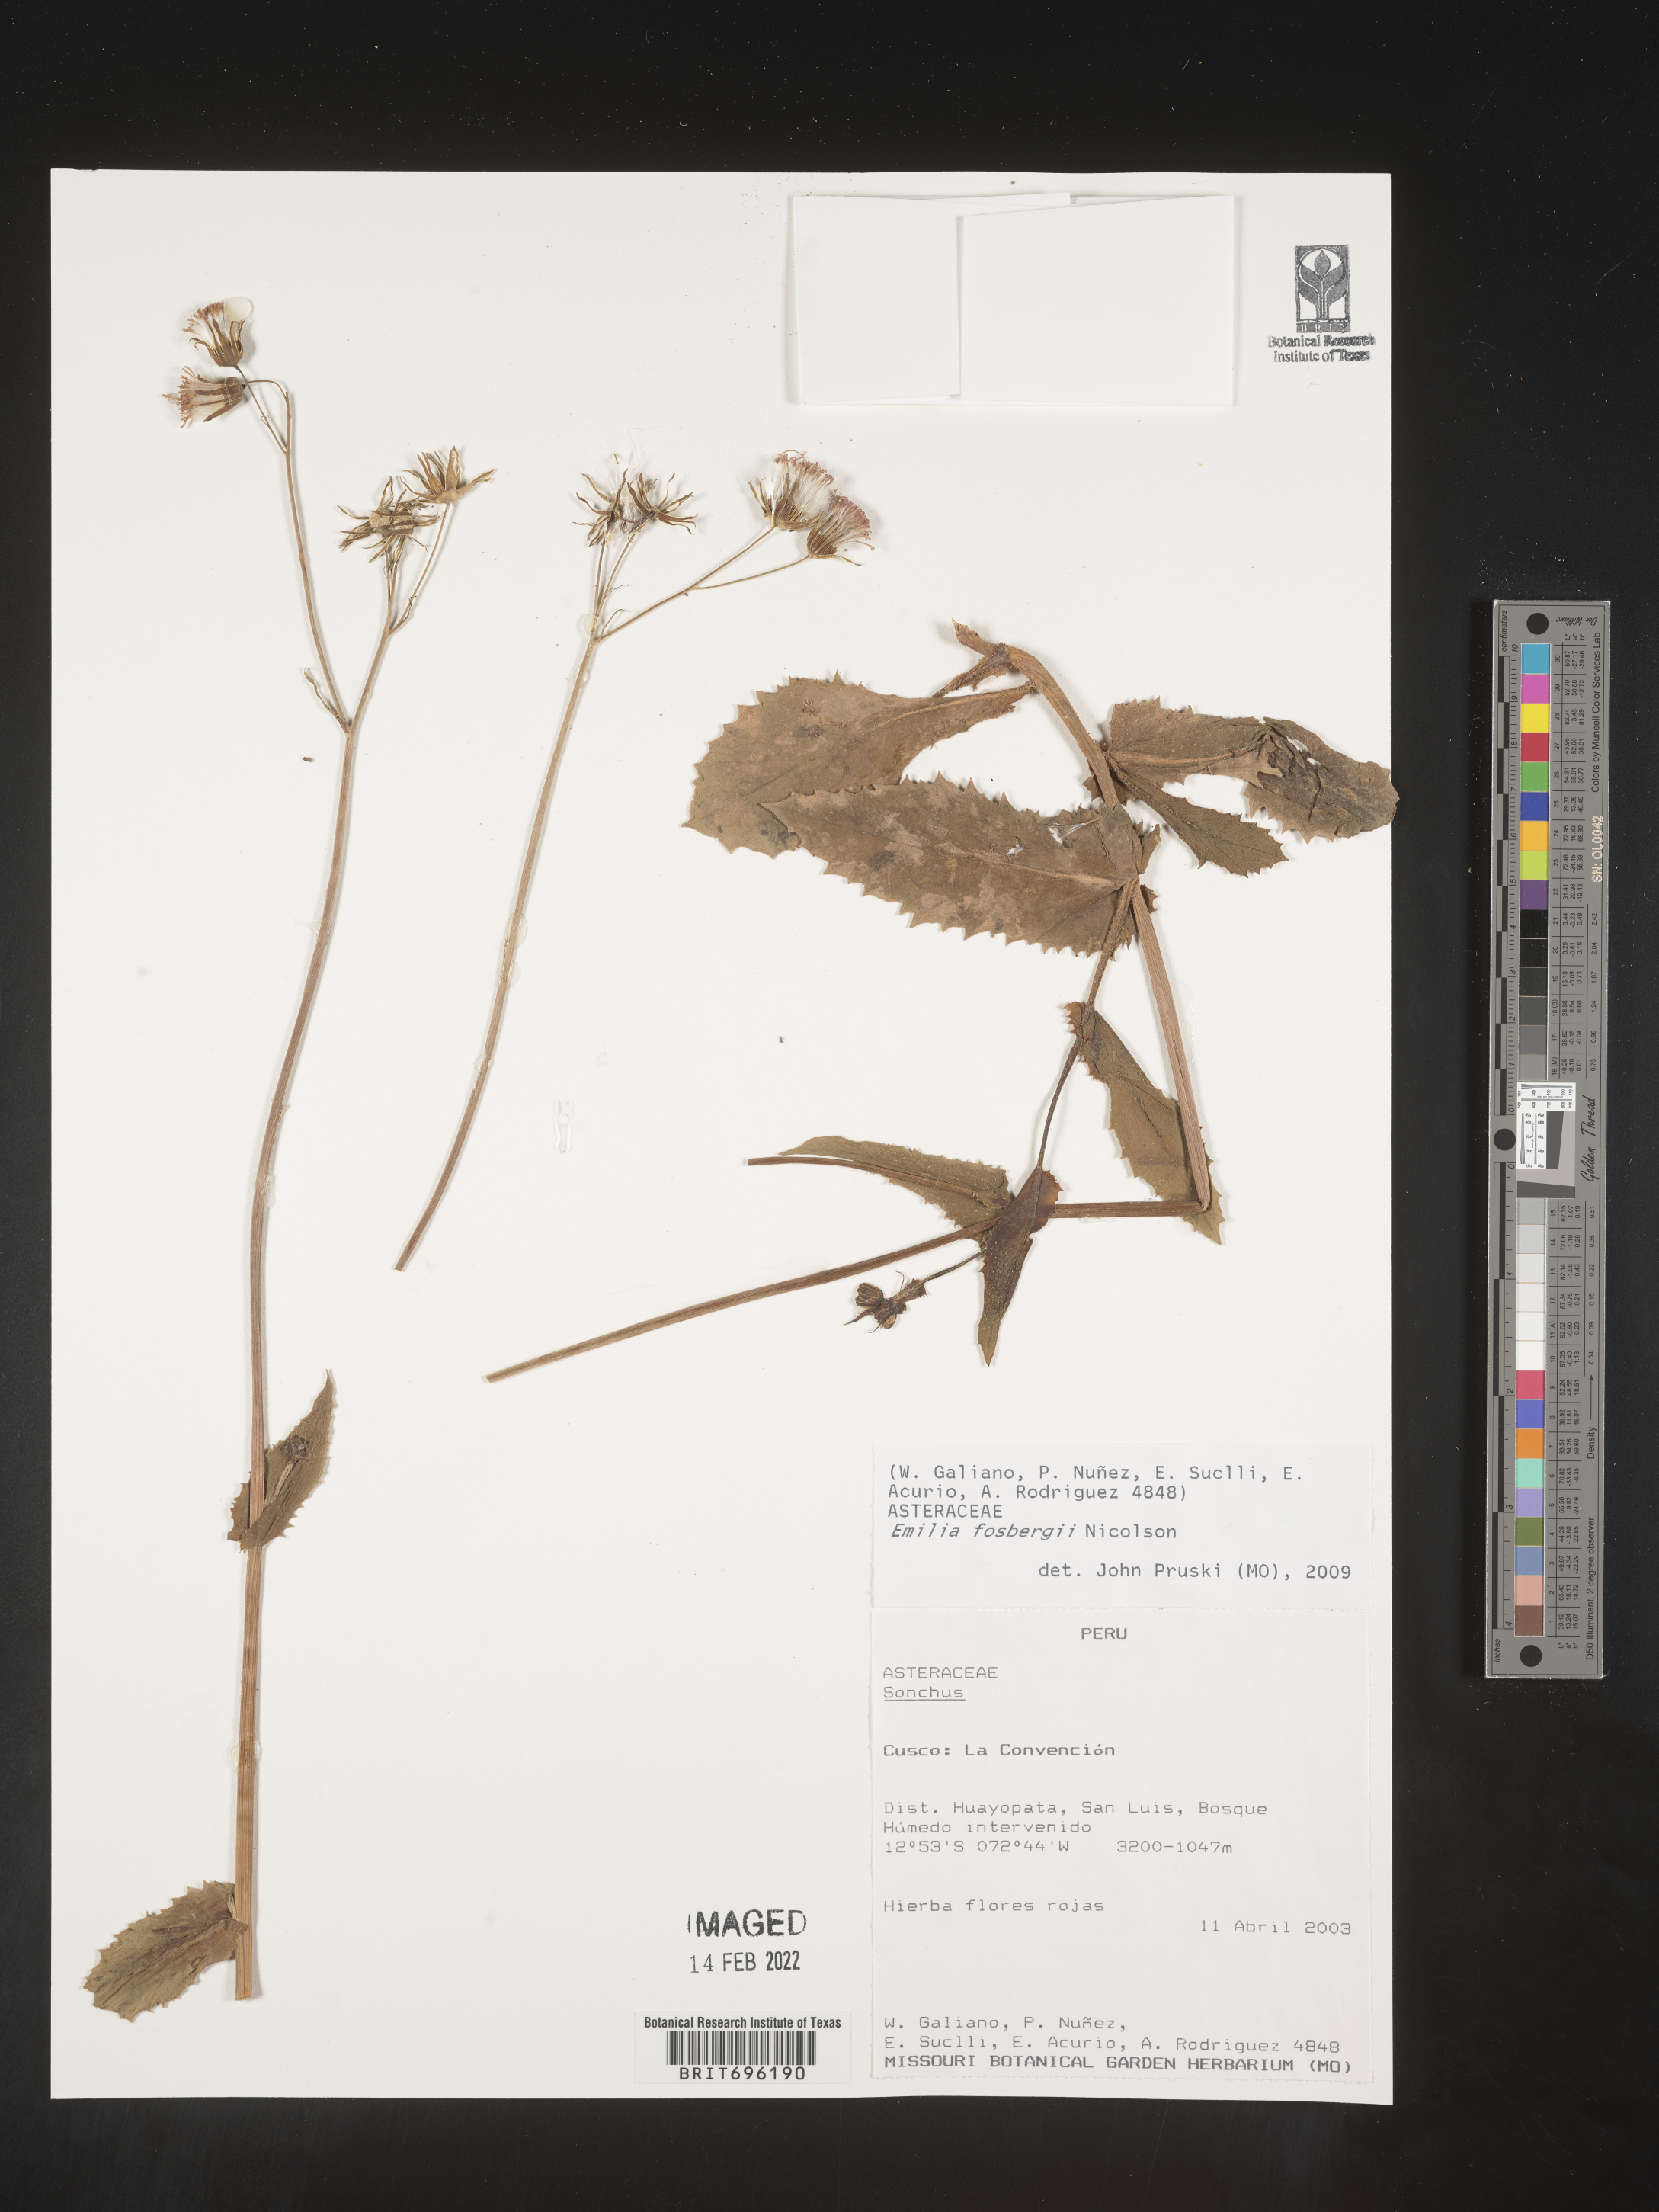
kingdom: Plantae
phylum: Tracheophyta
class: Magnoliopsida
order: Asterales
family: Asteraceae
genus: Emilia
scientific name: Emilia
